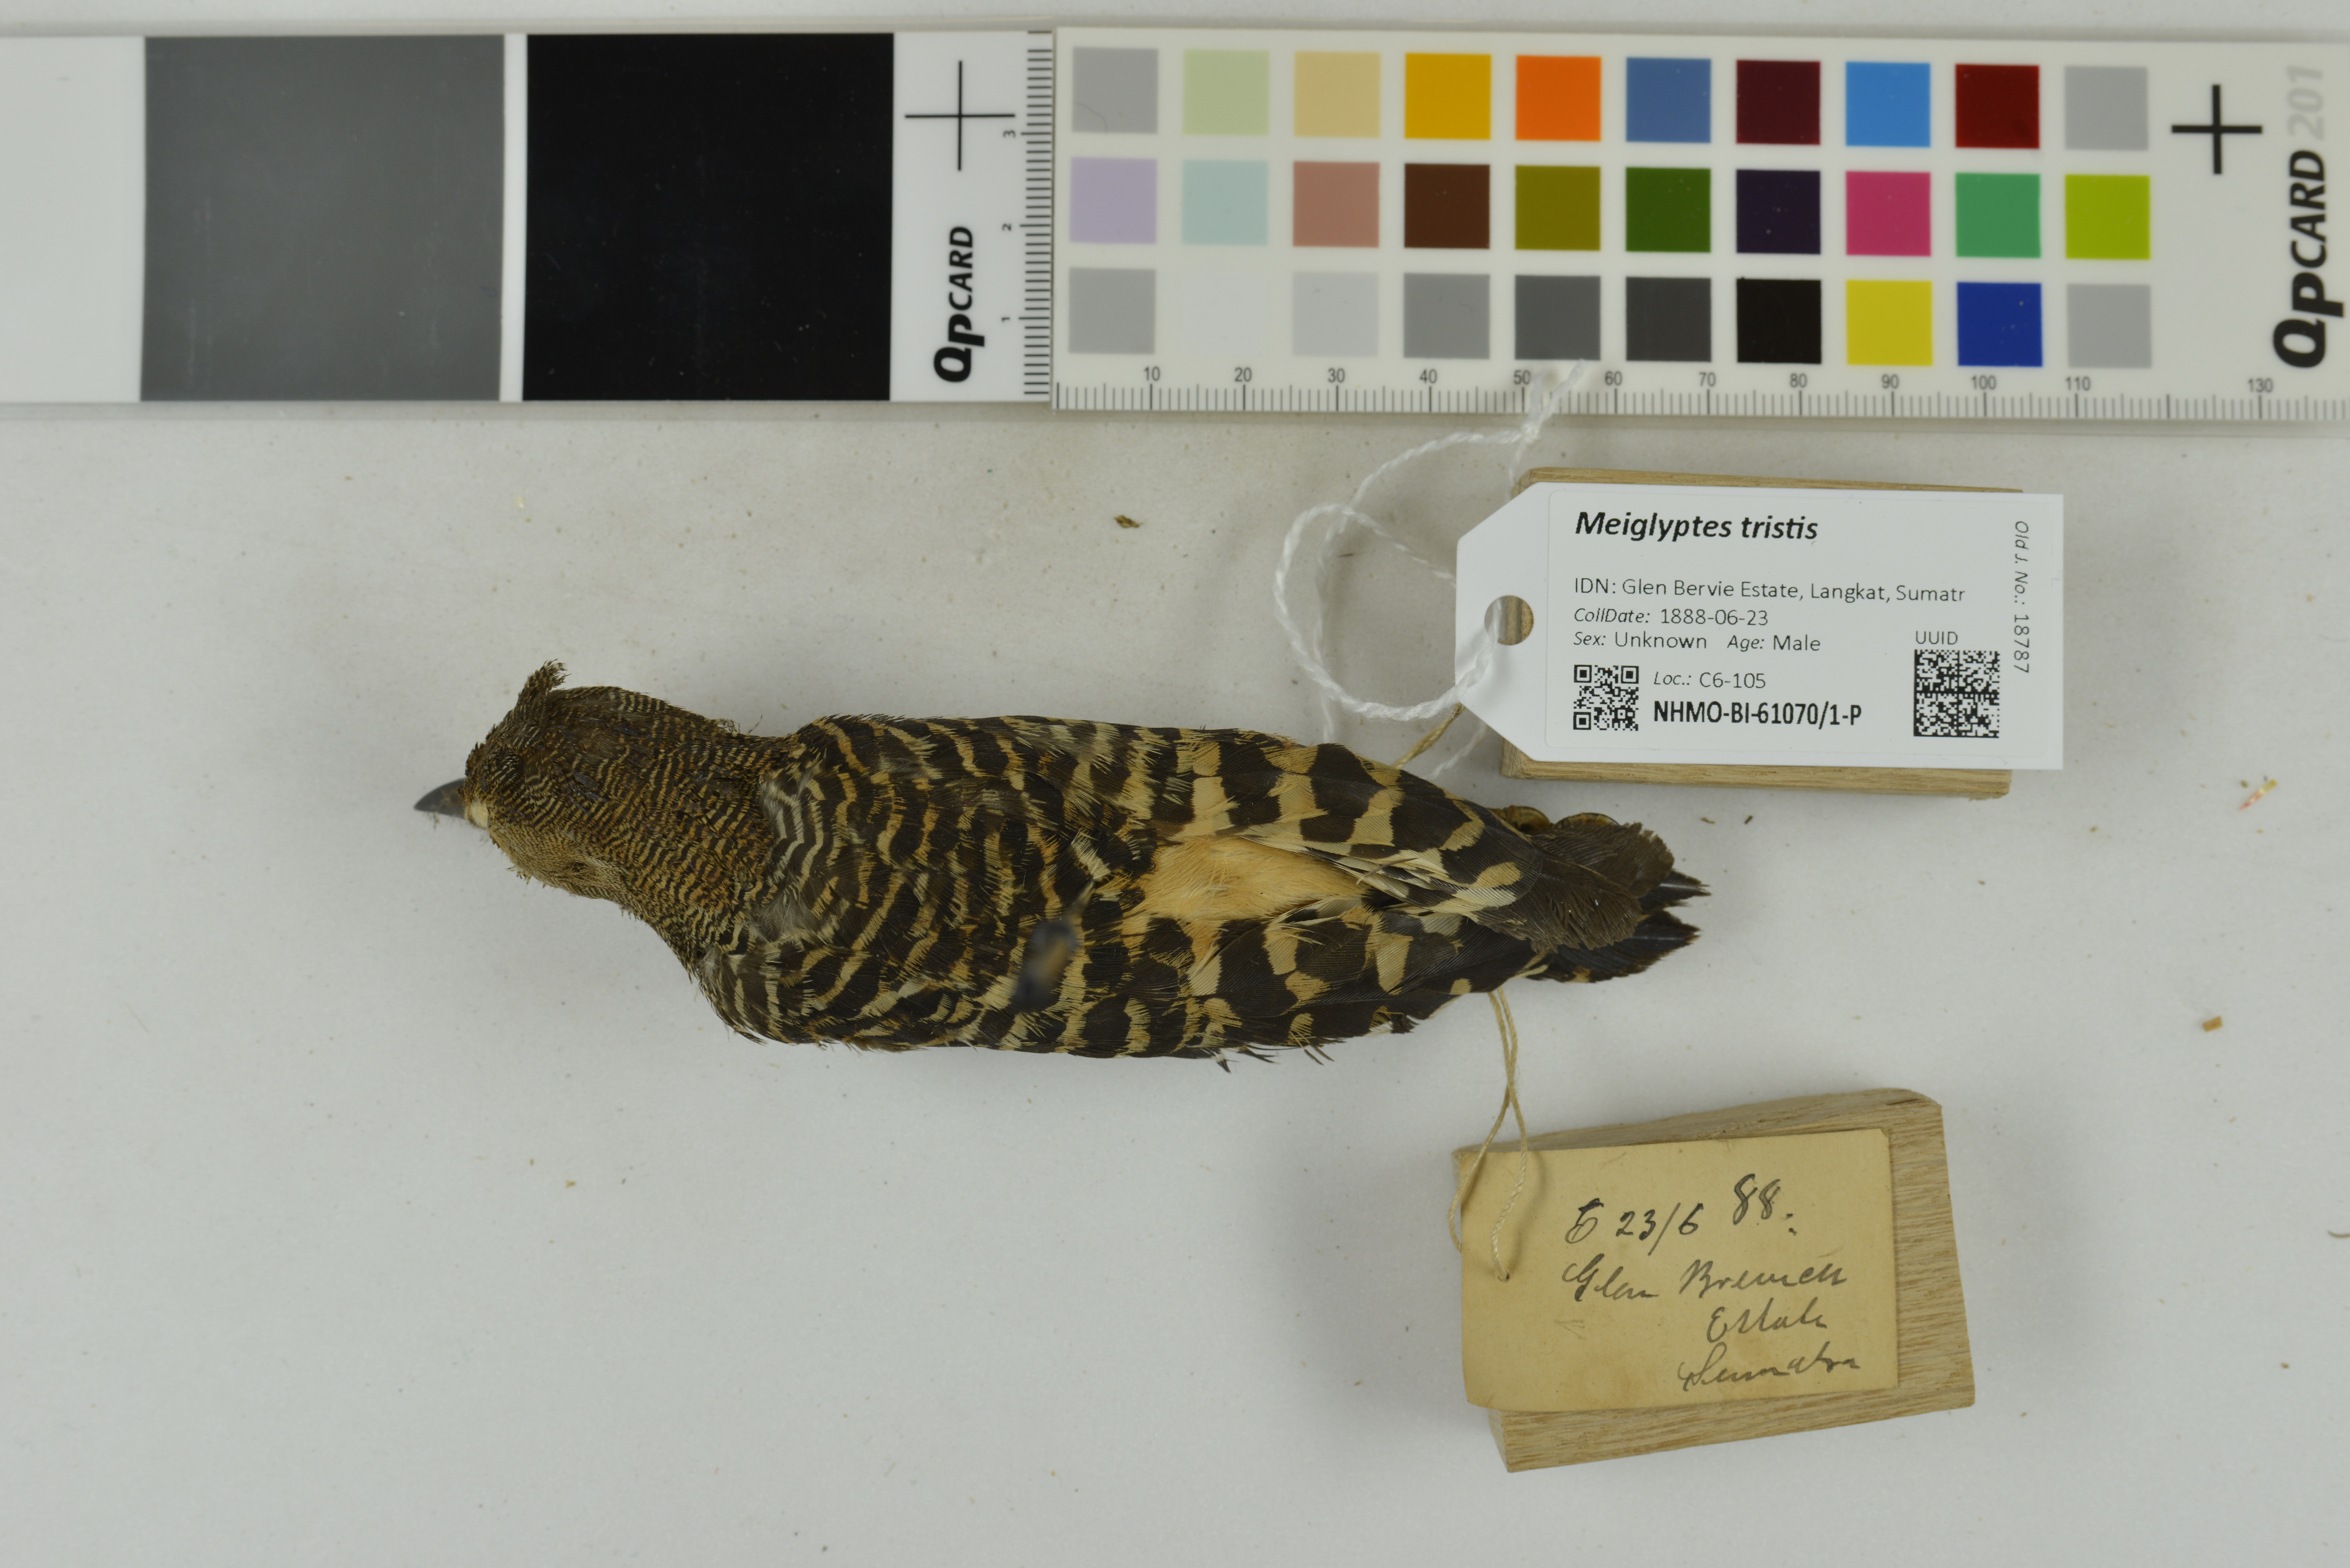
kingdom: Animalia
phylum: Chordata
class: Aves
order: Piciformes
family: Picidae
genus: Meiglyptes
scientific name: Meiglyptes tristis
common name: Buff-rumped woodpecker
